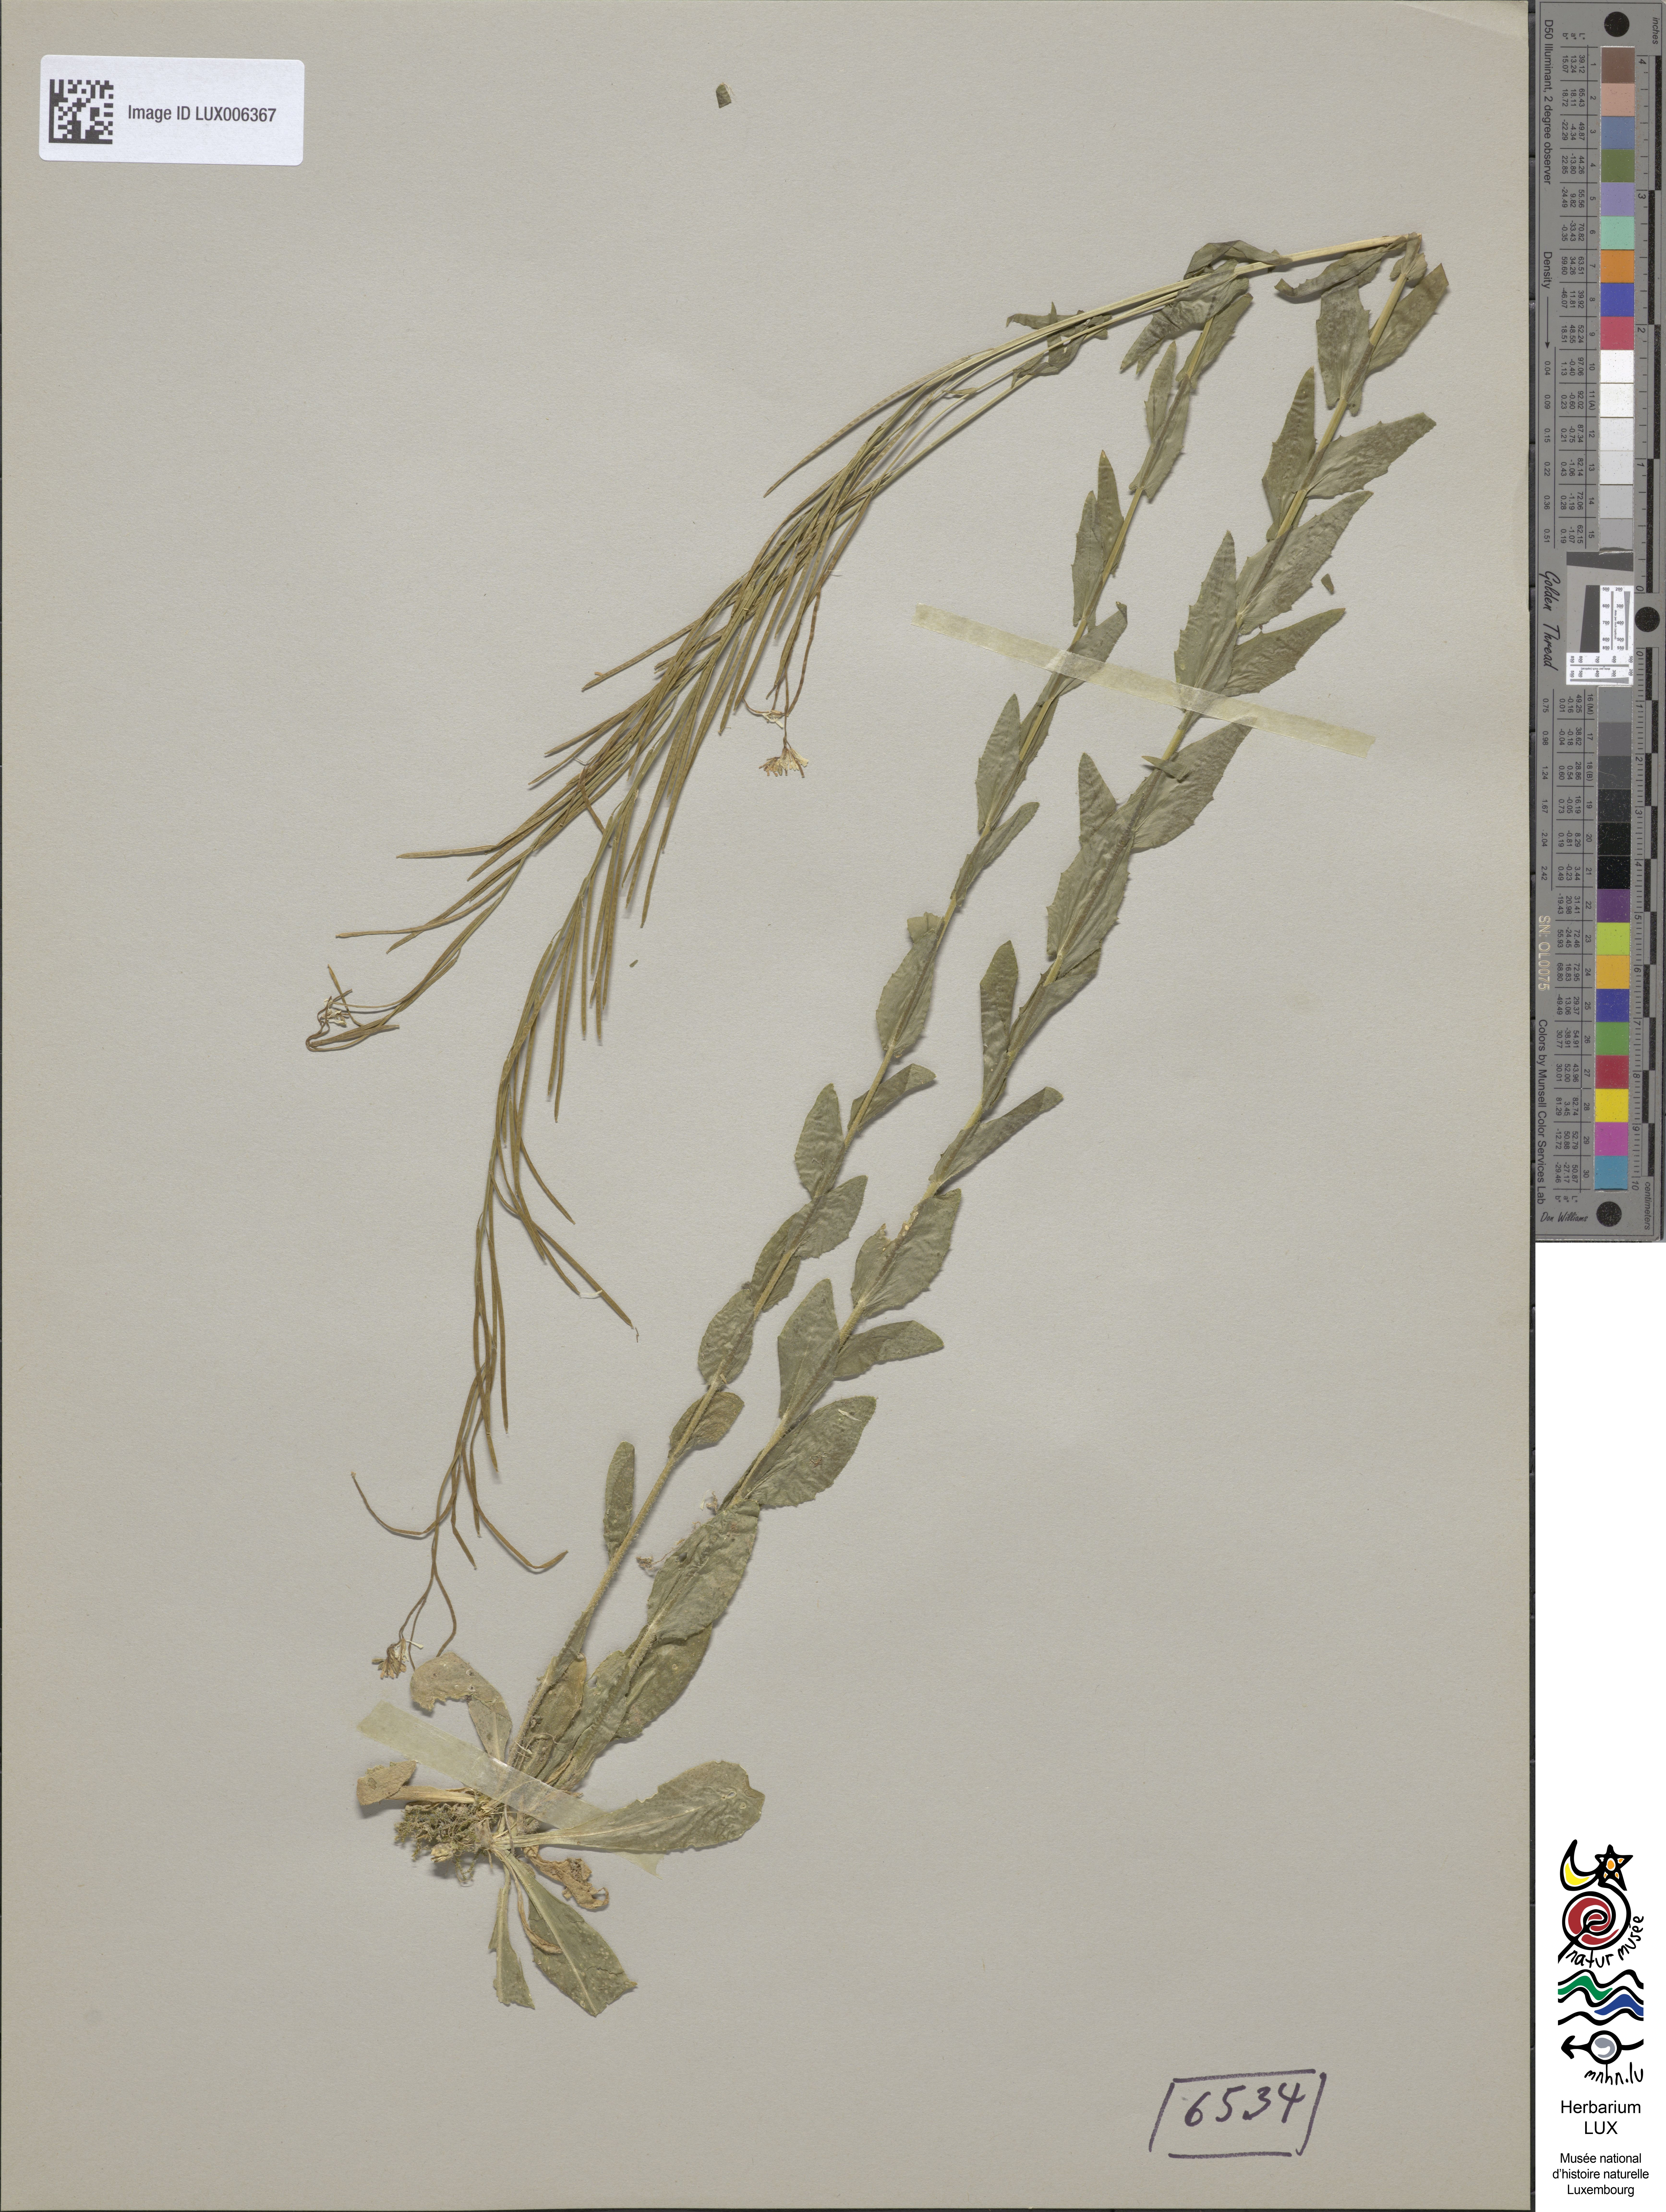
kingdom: Plantae
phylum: Tracheophyta
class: Magnoliopsida
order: Brassicales
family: Brassicaceae
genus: Arabis
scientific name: Arabis sagittata
